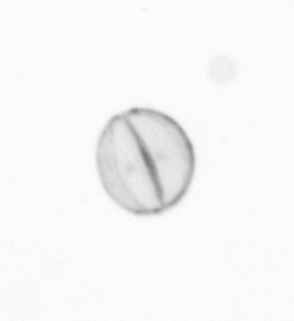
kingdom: Chromista
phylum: Ochrophyta
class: Bacillariophyceae
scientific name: Bacillariophyceae
